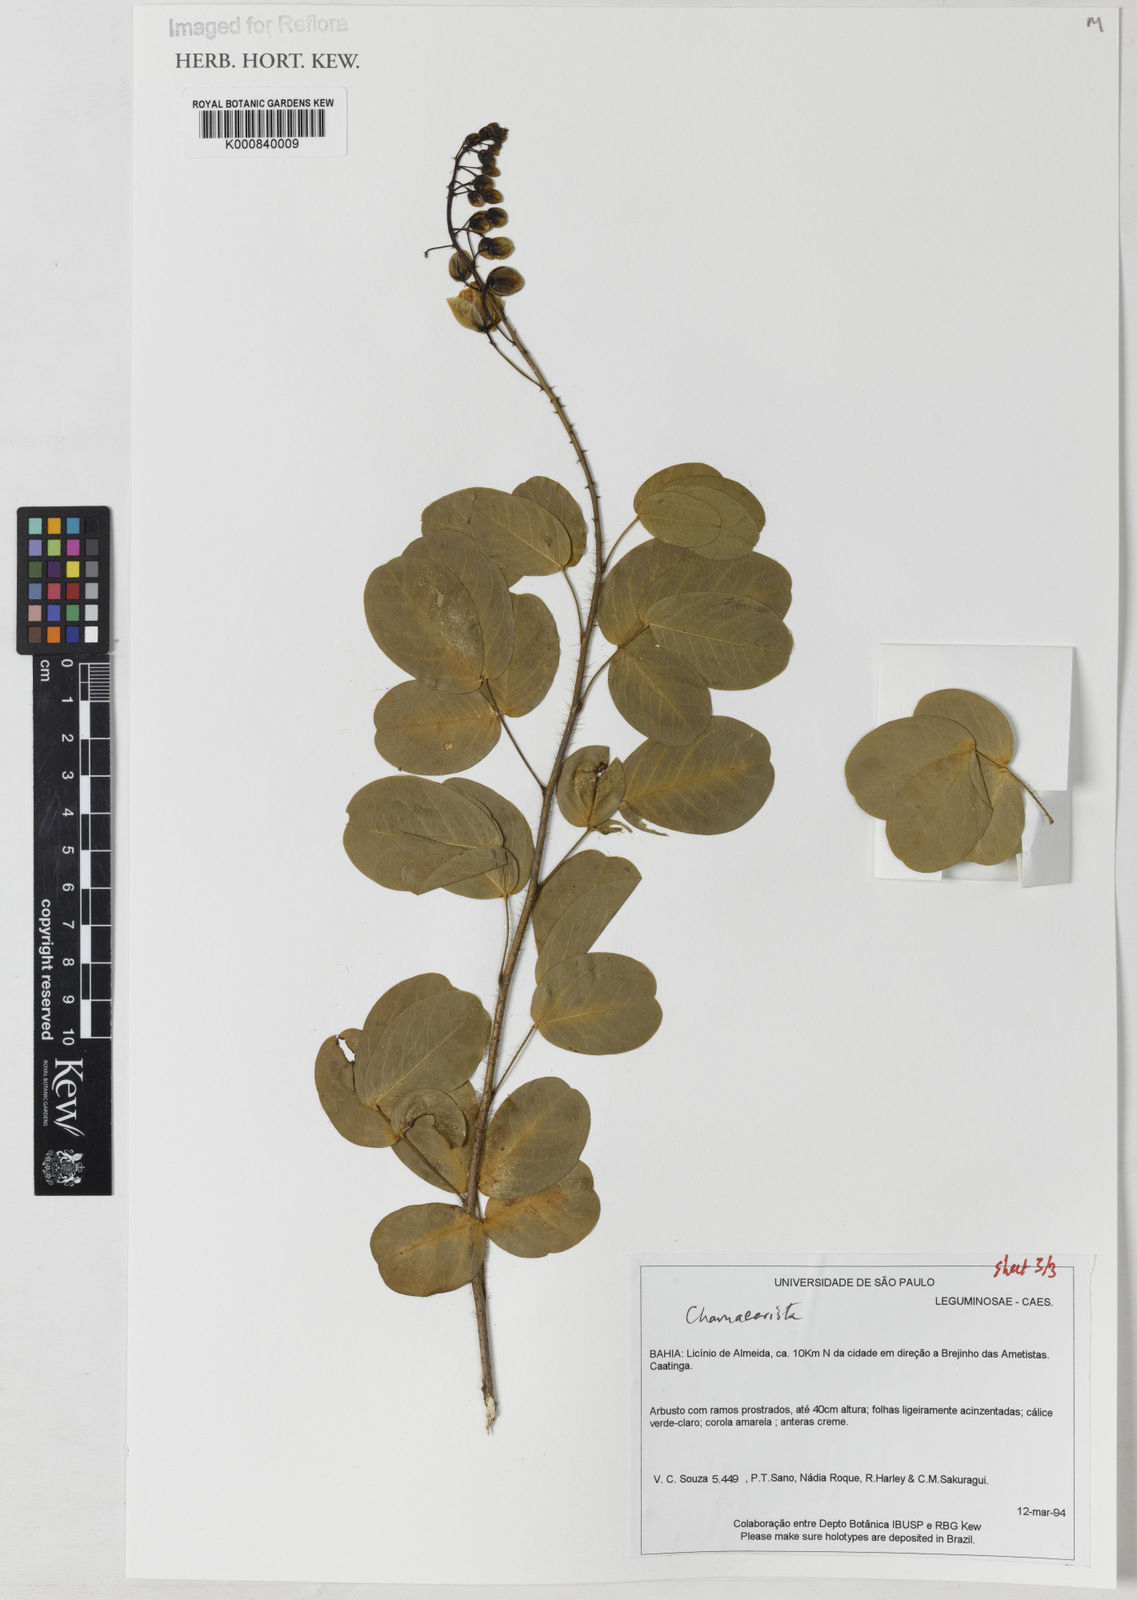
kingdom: Plantae
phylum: Tracheophyta
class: Magnoliopsida
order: Fabales
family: Fabaceae
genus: Chamaecrista
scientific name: Chamaecrista
